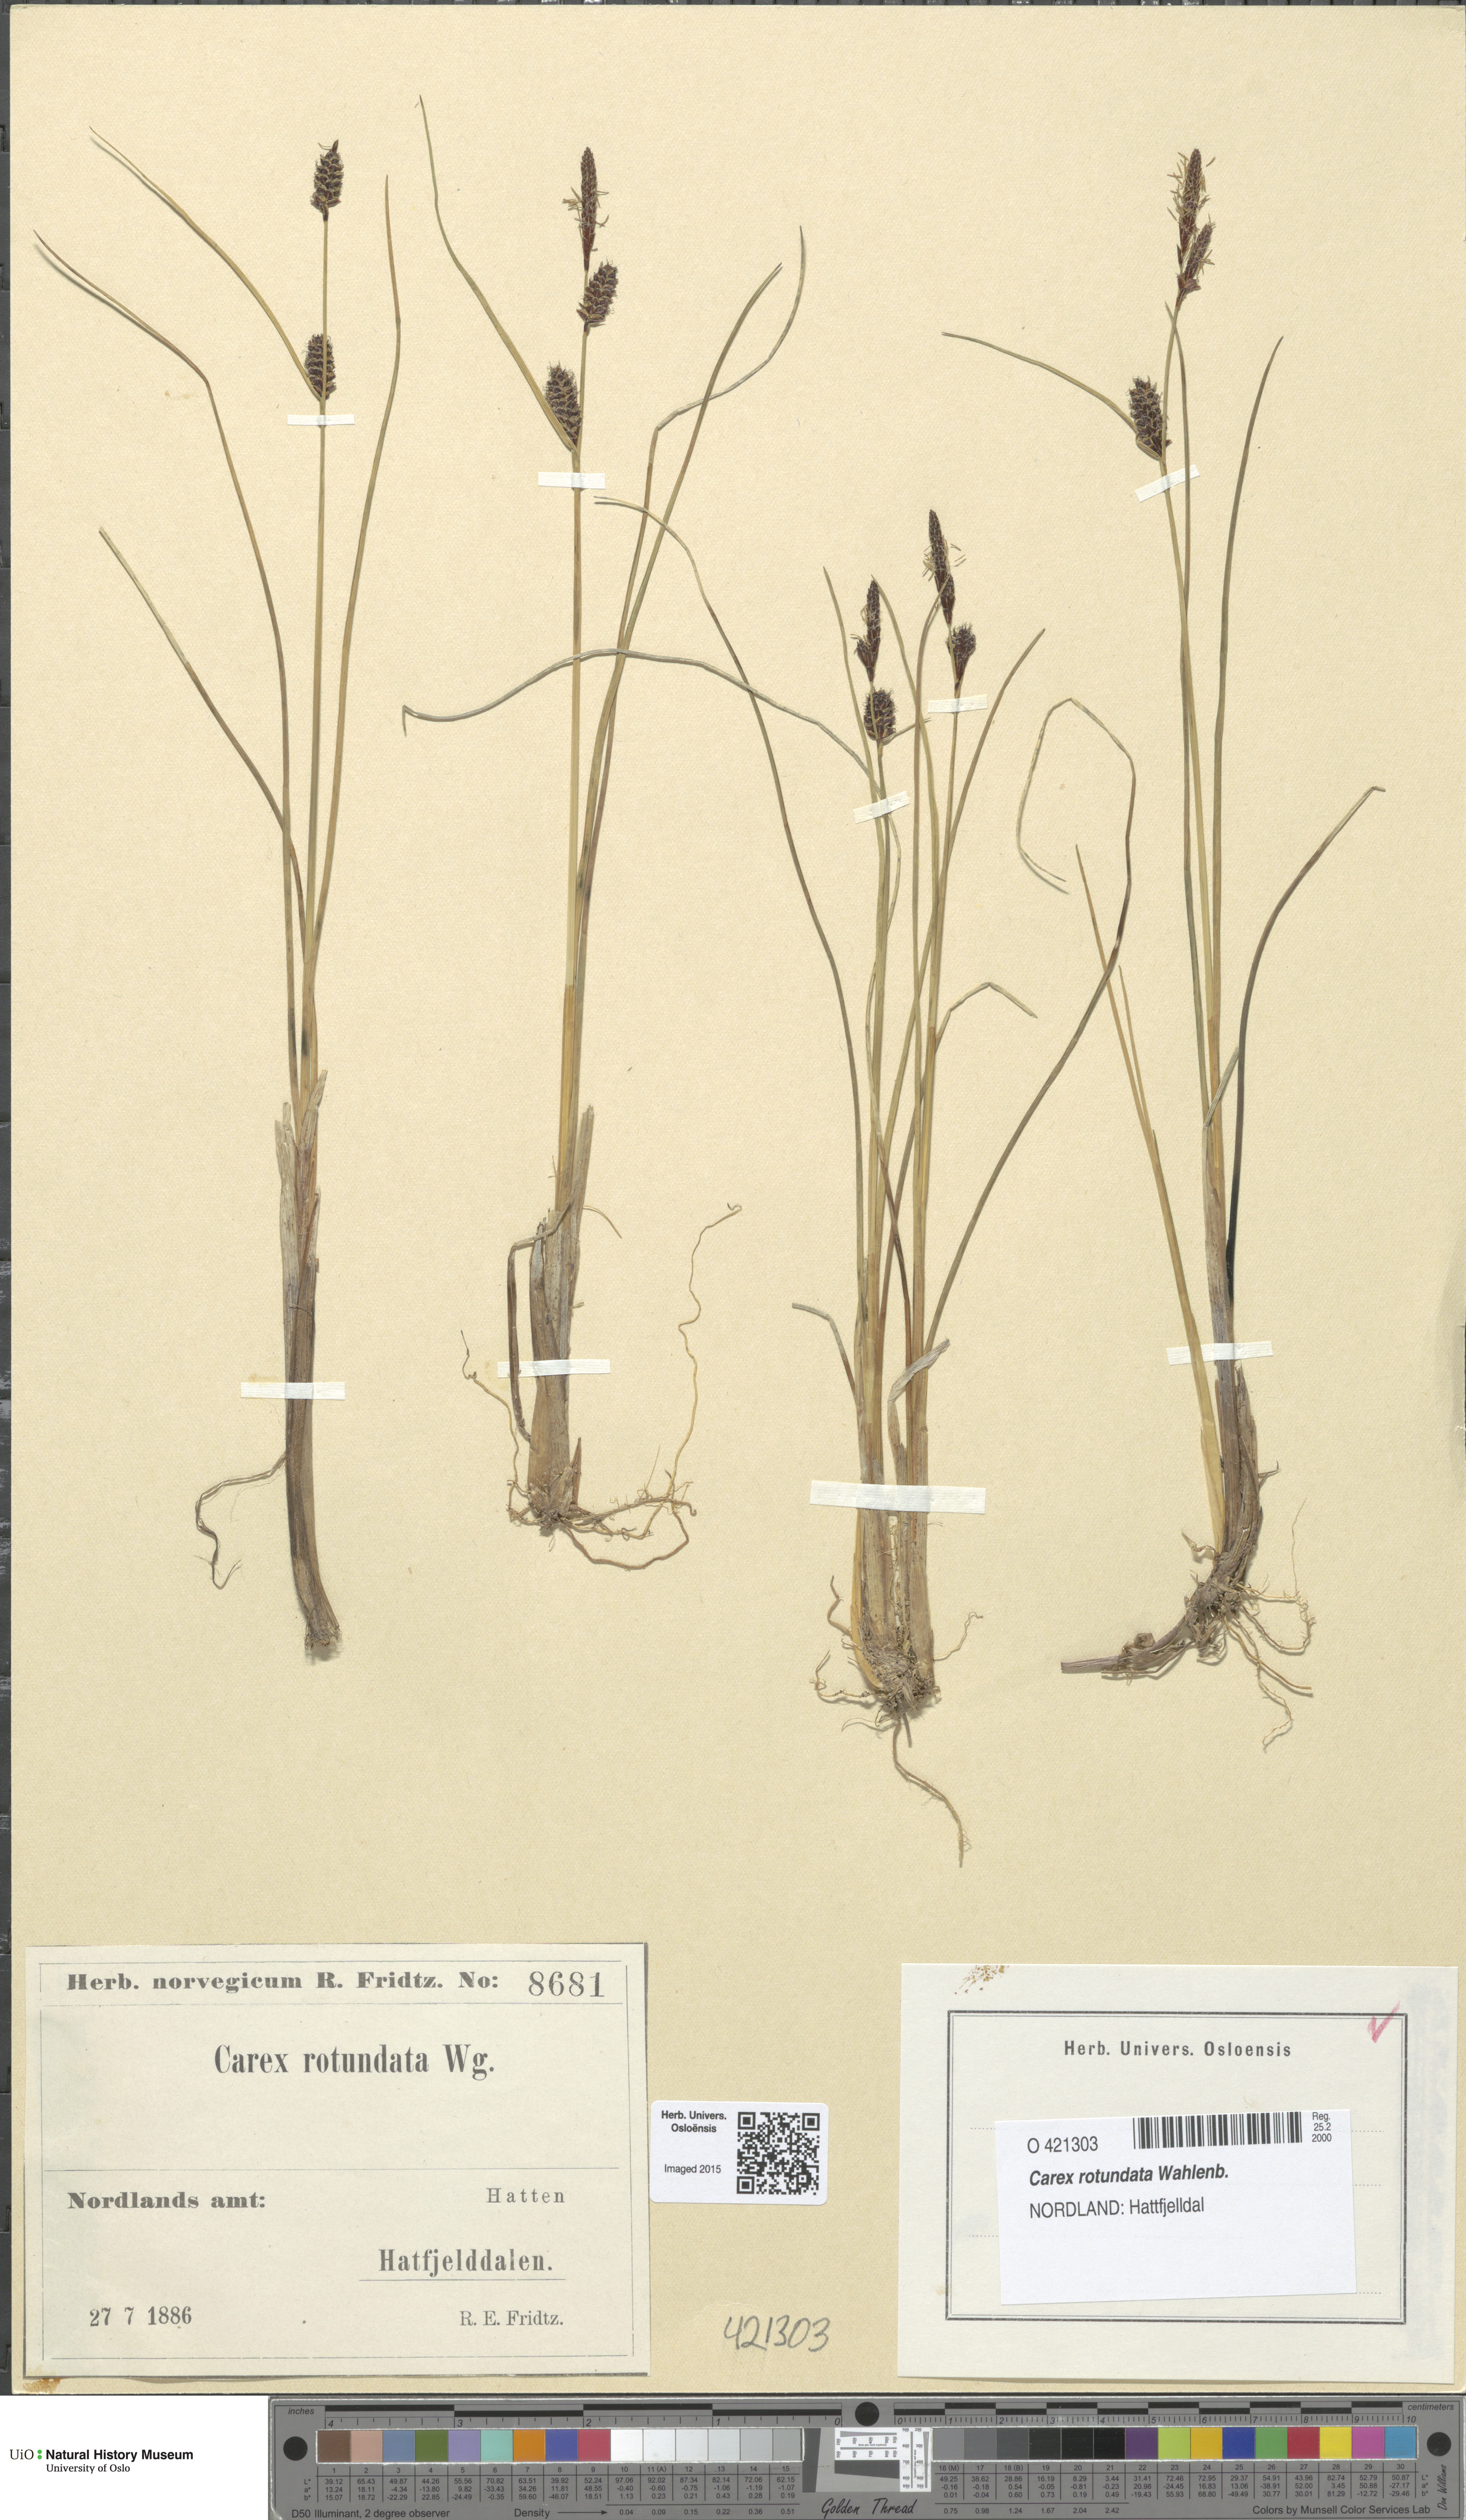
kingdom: Plantae
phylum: Tracheophyta
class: Liliopsida
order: Poales
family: Cyperaceae
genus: Carex
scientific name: Carex rotundata
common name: Round-fruited sedge
